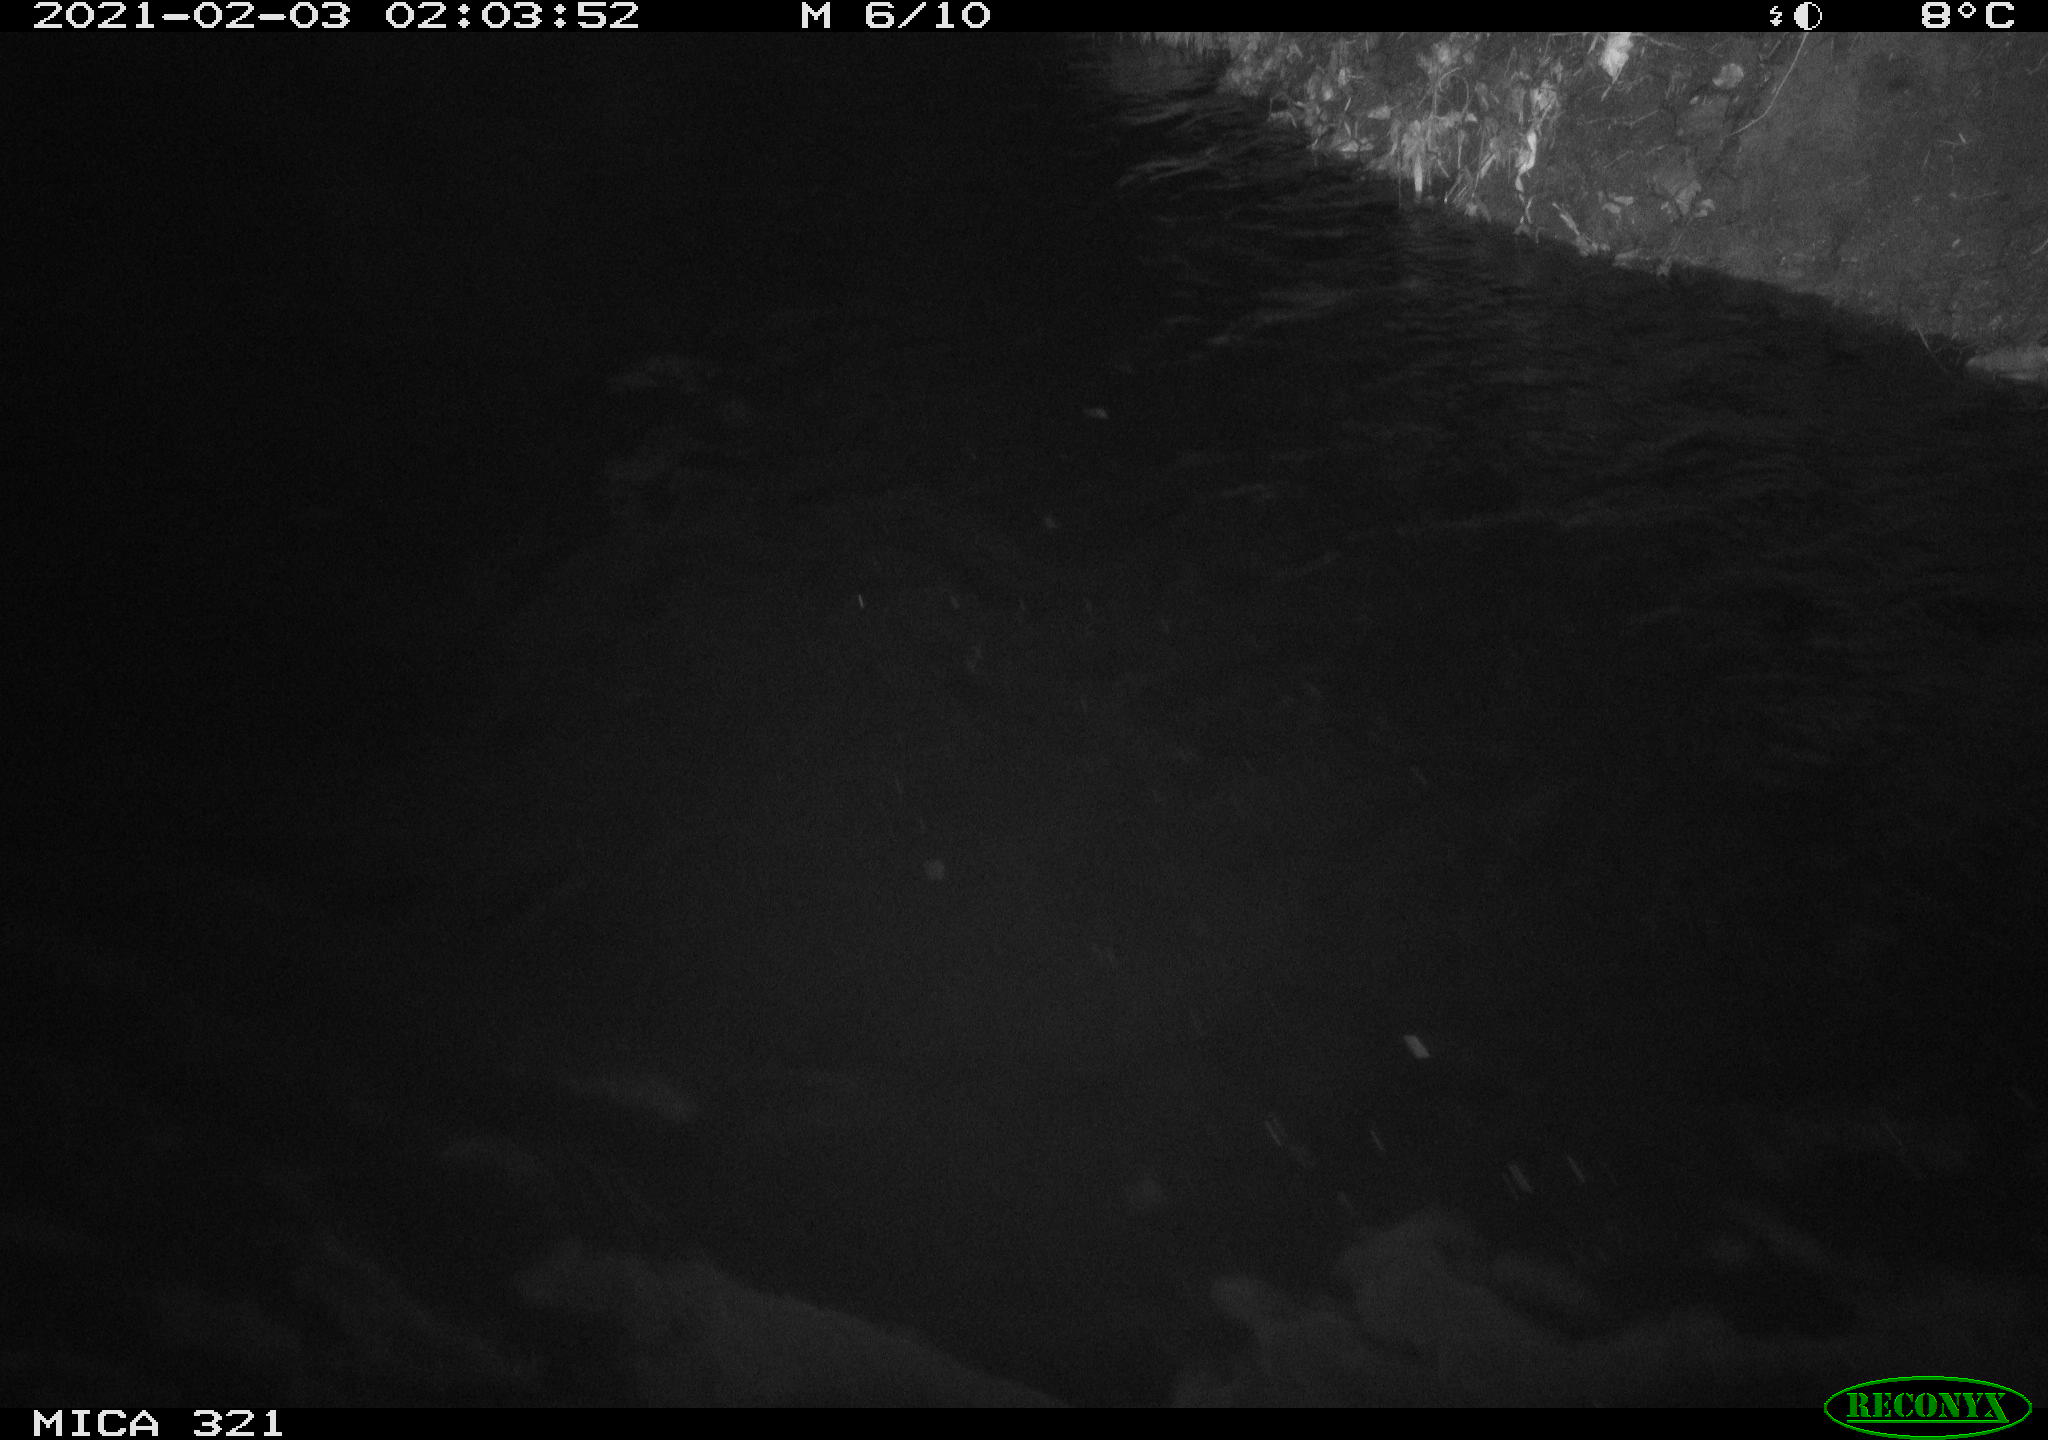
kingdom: Animalia
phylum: Chordata
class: Aves
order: Anseriformes
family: Anatidae
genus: Anas
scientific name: Anas platyrhynchos
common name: Mallard
